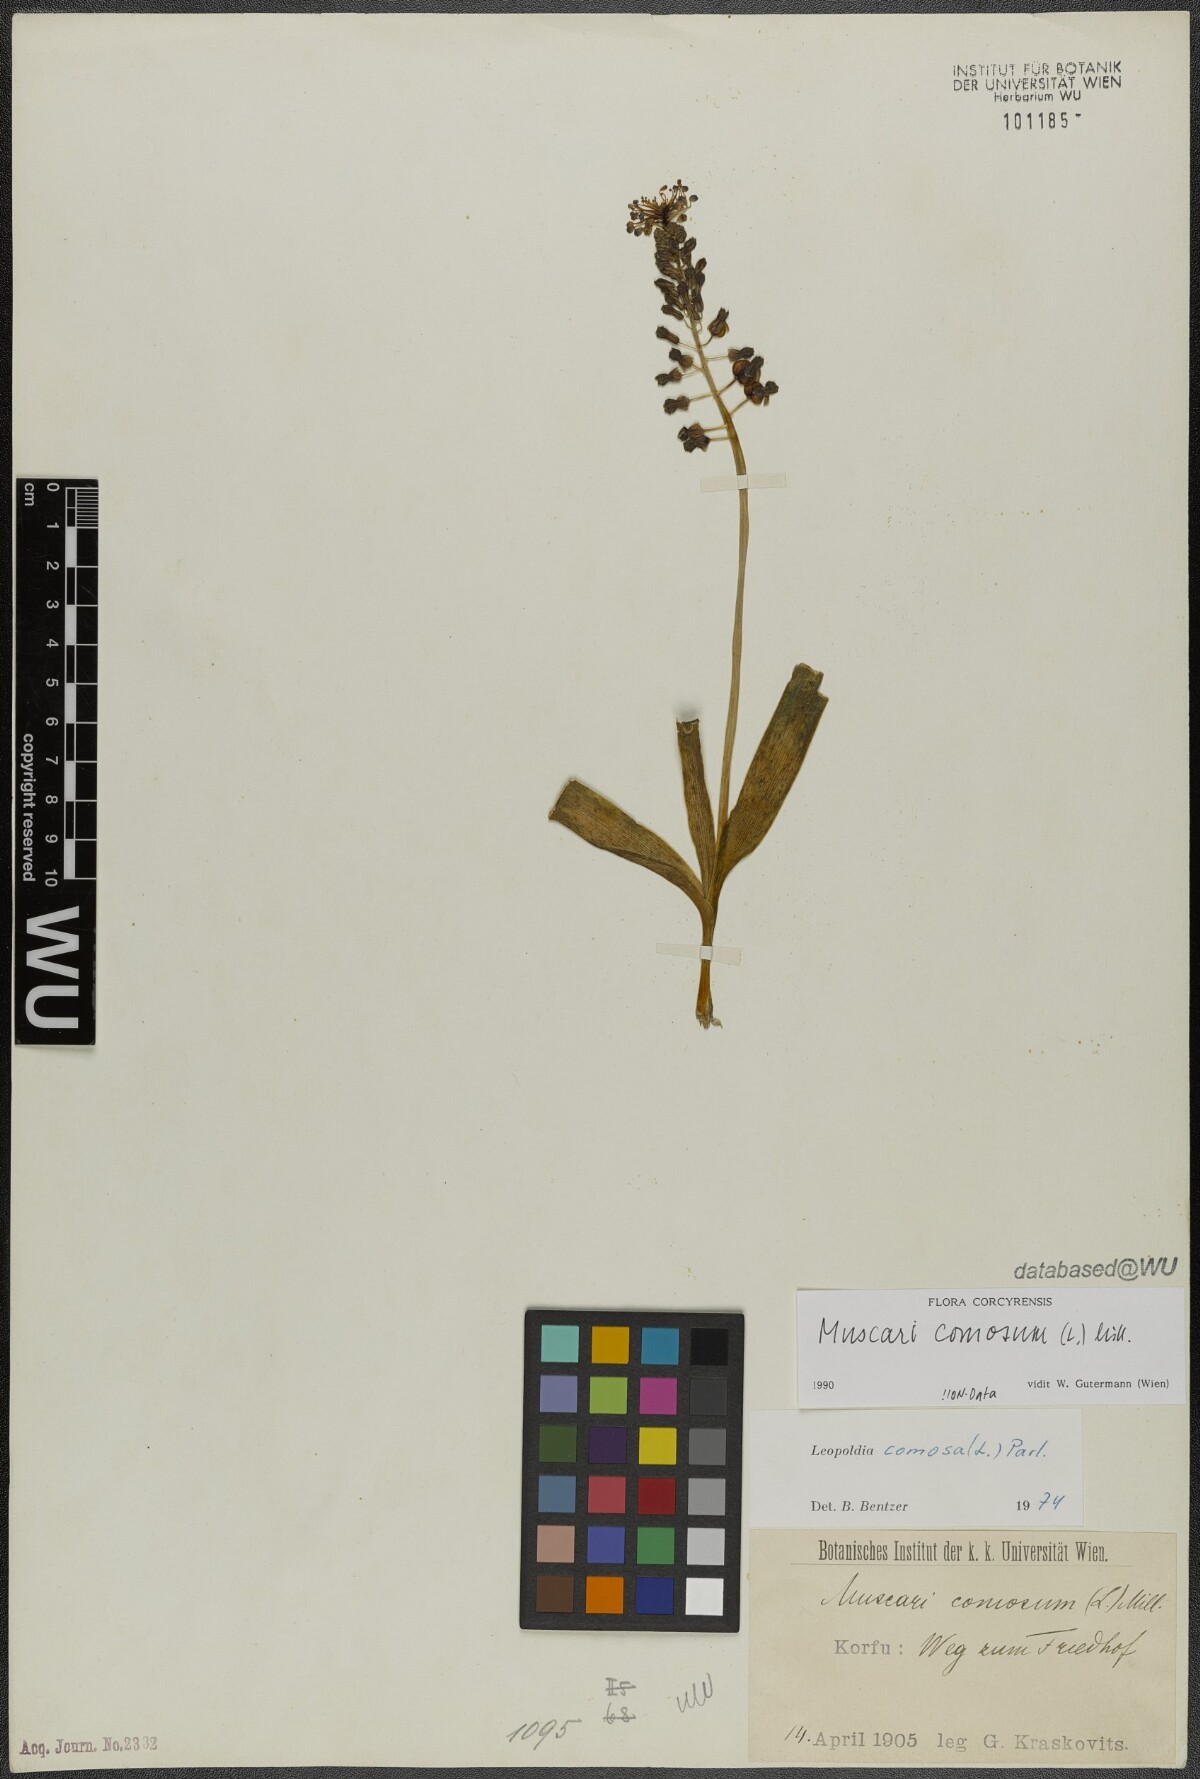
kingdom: Plantae
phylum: Tracheophyta
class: Liliopsida
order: Asparagales
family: Asparagaceae
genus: Muscari
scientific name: Muscari comosum
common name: Tassel hyacinth
